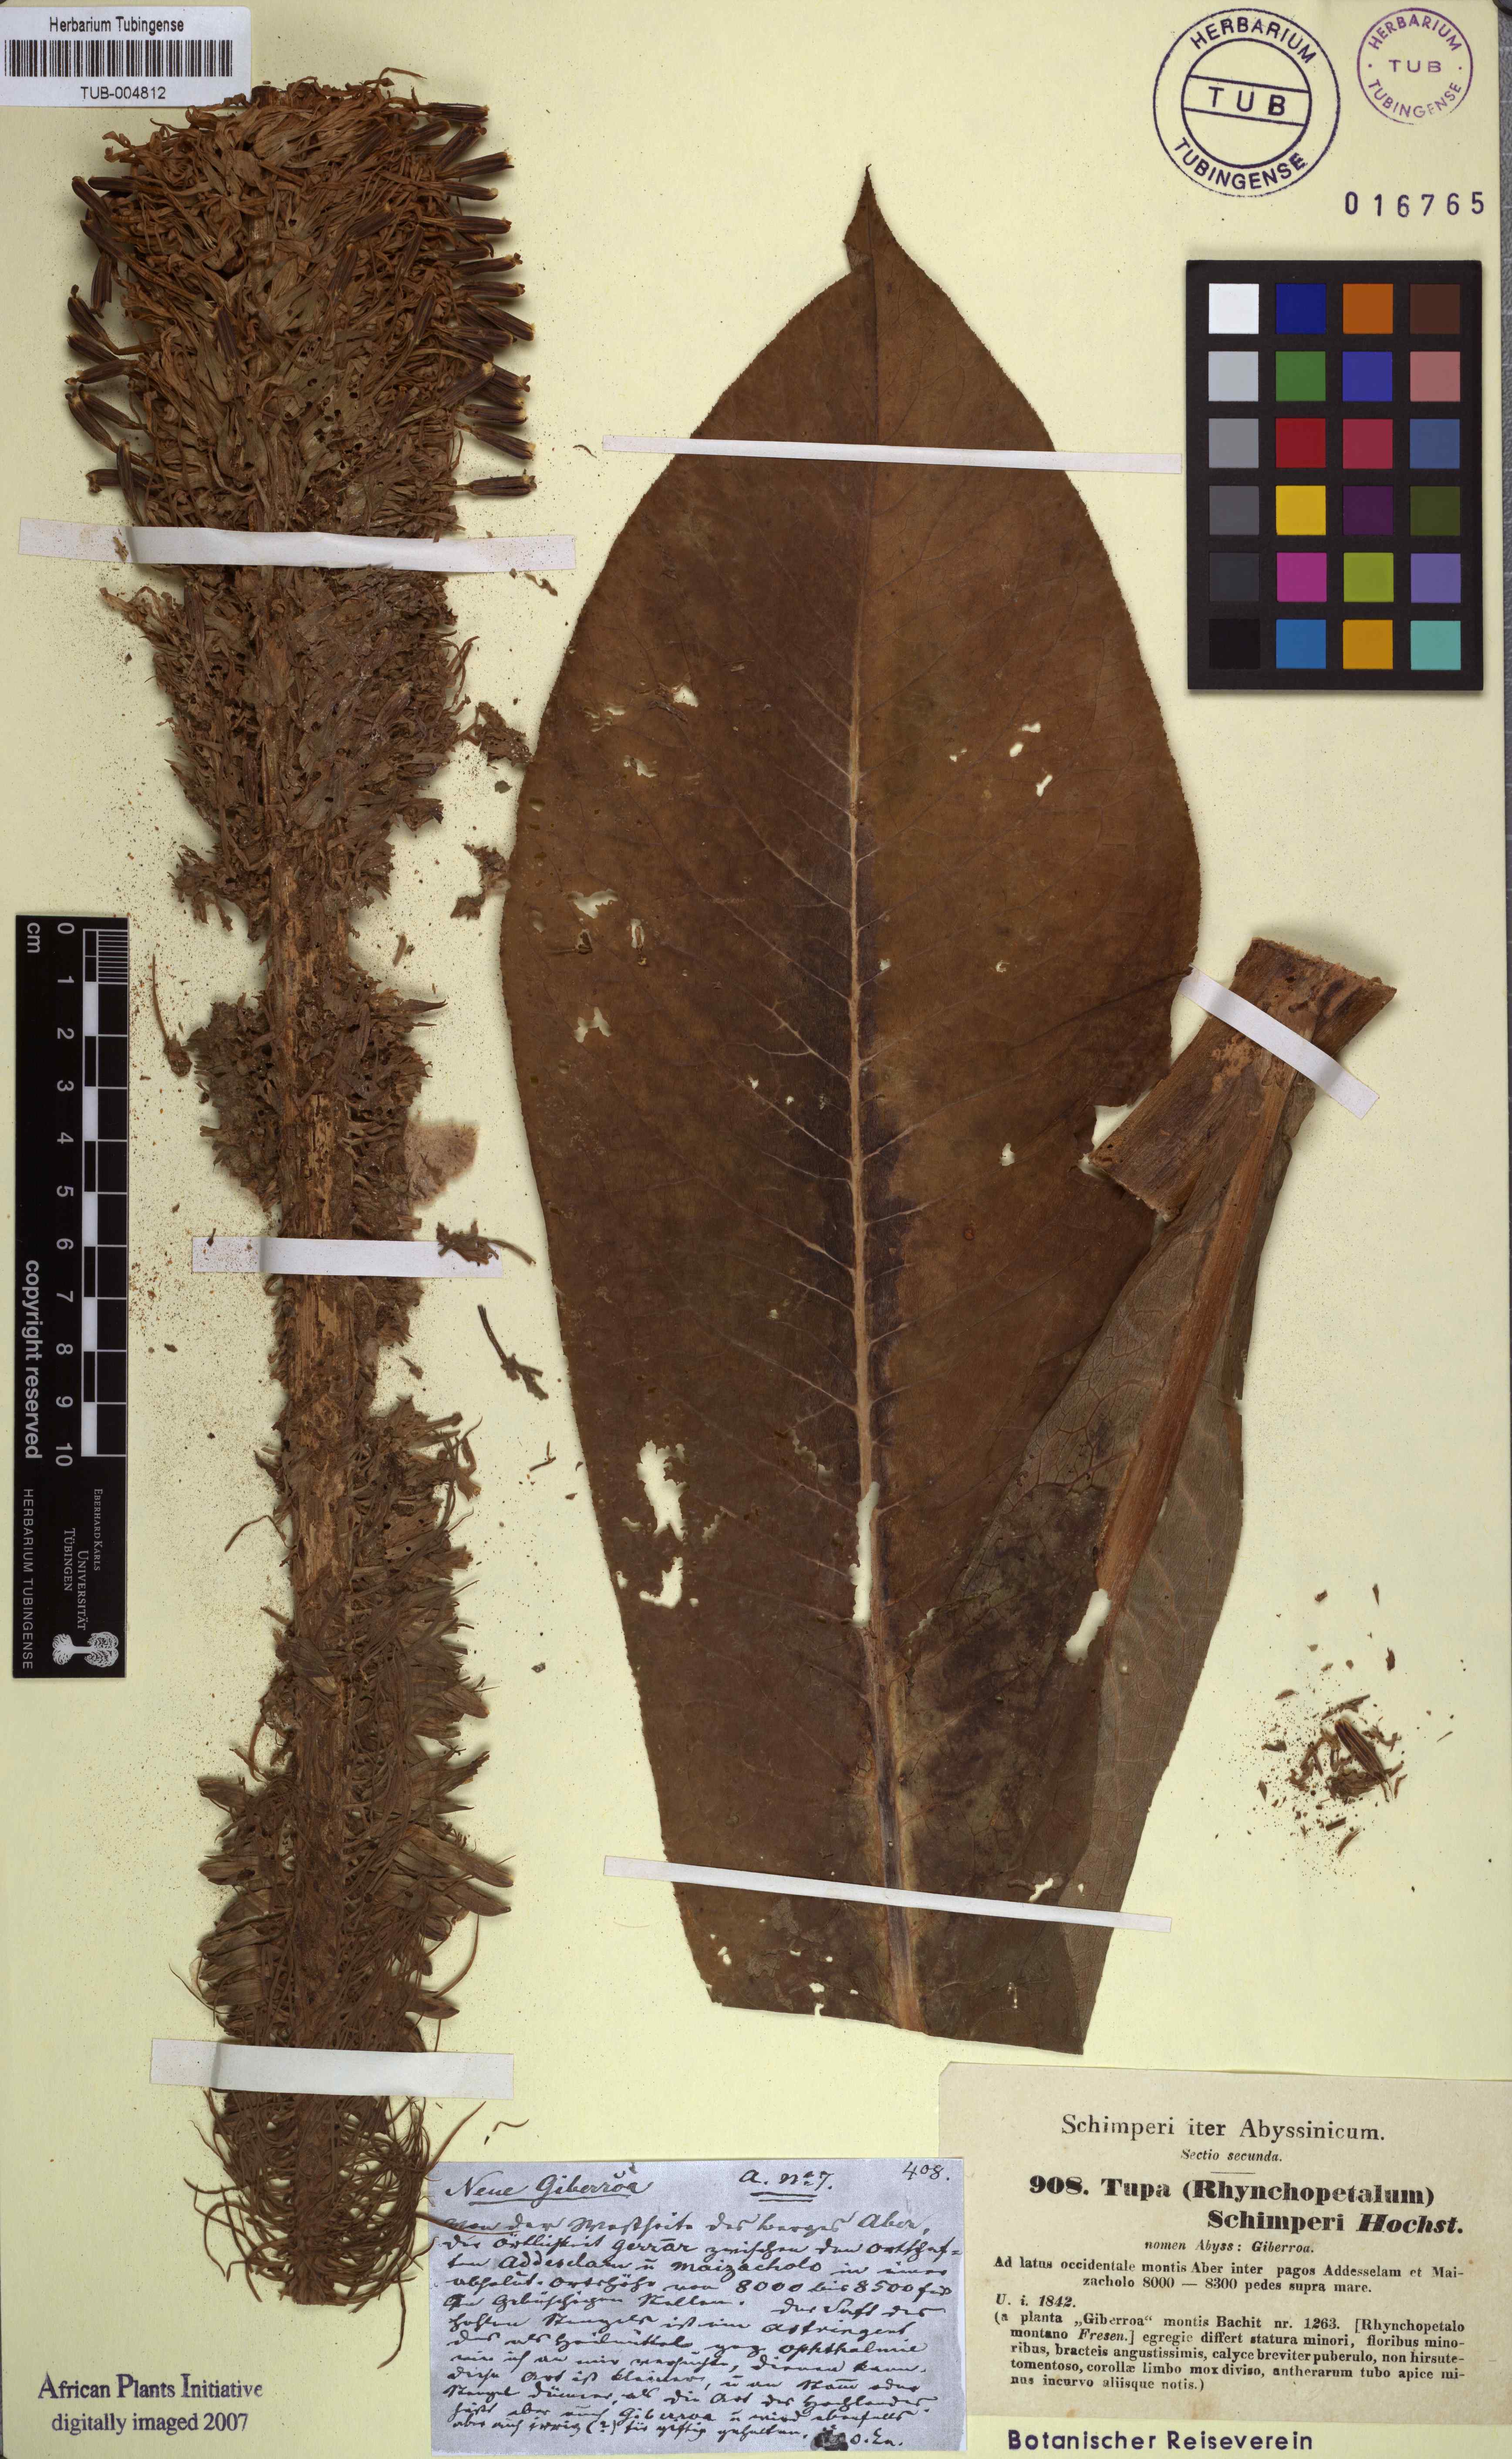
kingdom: Plantae
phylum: Tracheophyta
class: Magnoliopsida
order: Asterales
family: Campanulaceae
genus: Lobelia
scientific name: Lobelia giberroa
